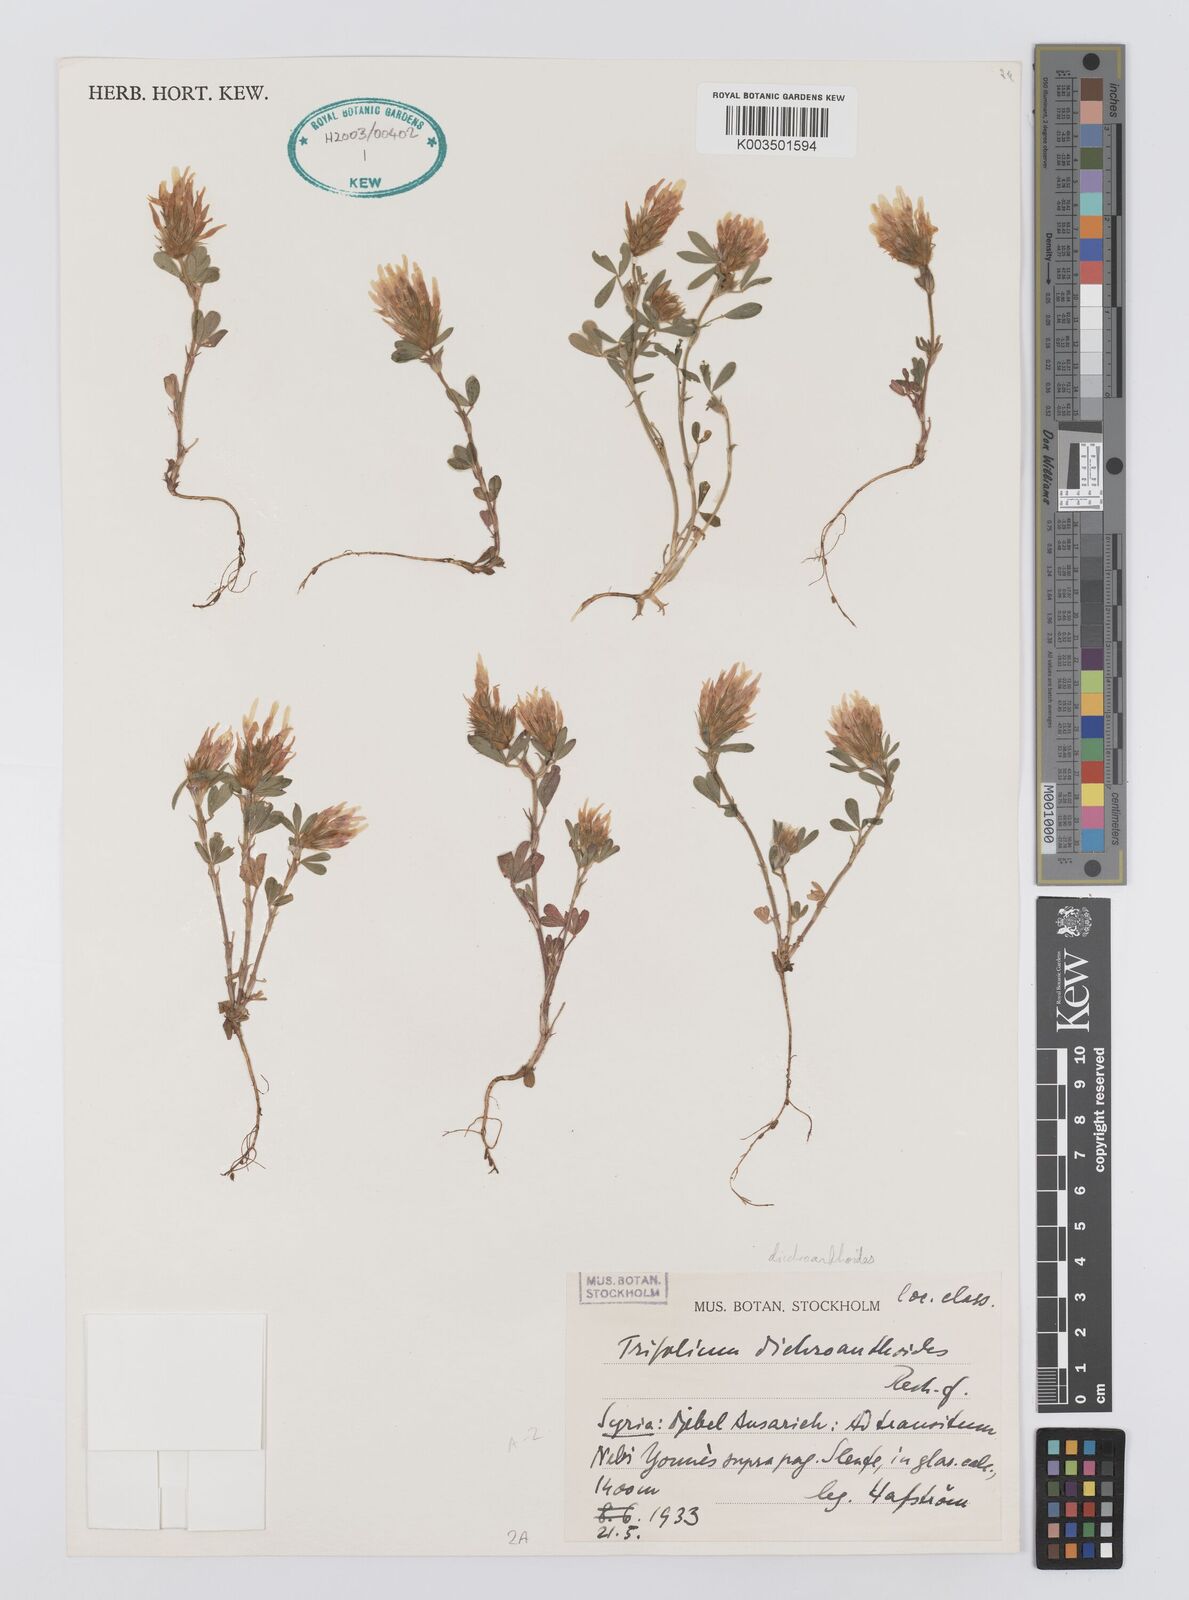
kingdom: Plantae
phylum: Tracheophyta
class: Magnoliopsida
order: Fabales
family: Fabaceae
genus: Trifolium
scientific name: Trifolium dichroanthoides
